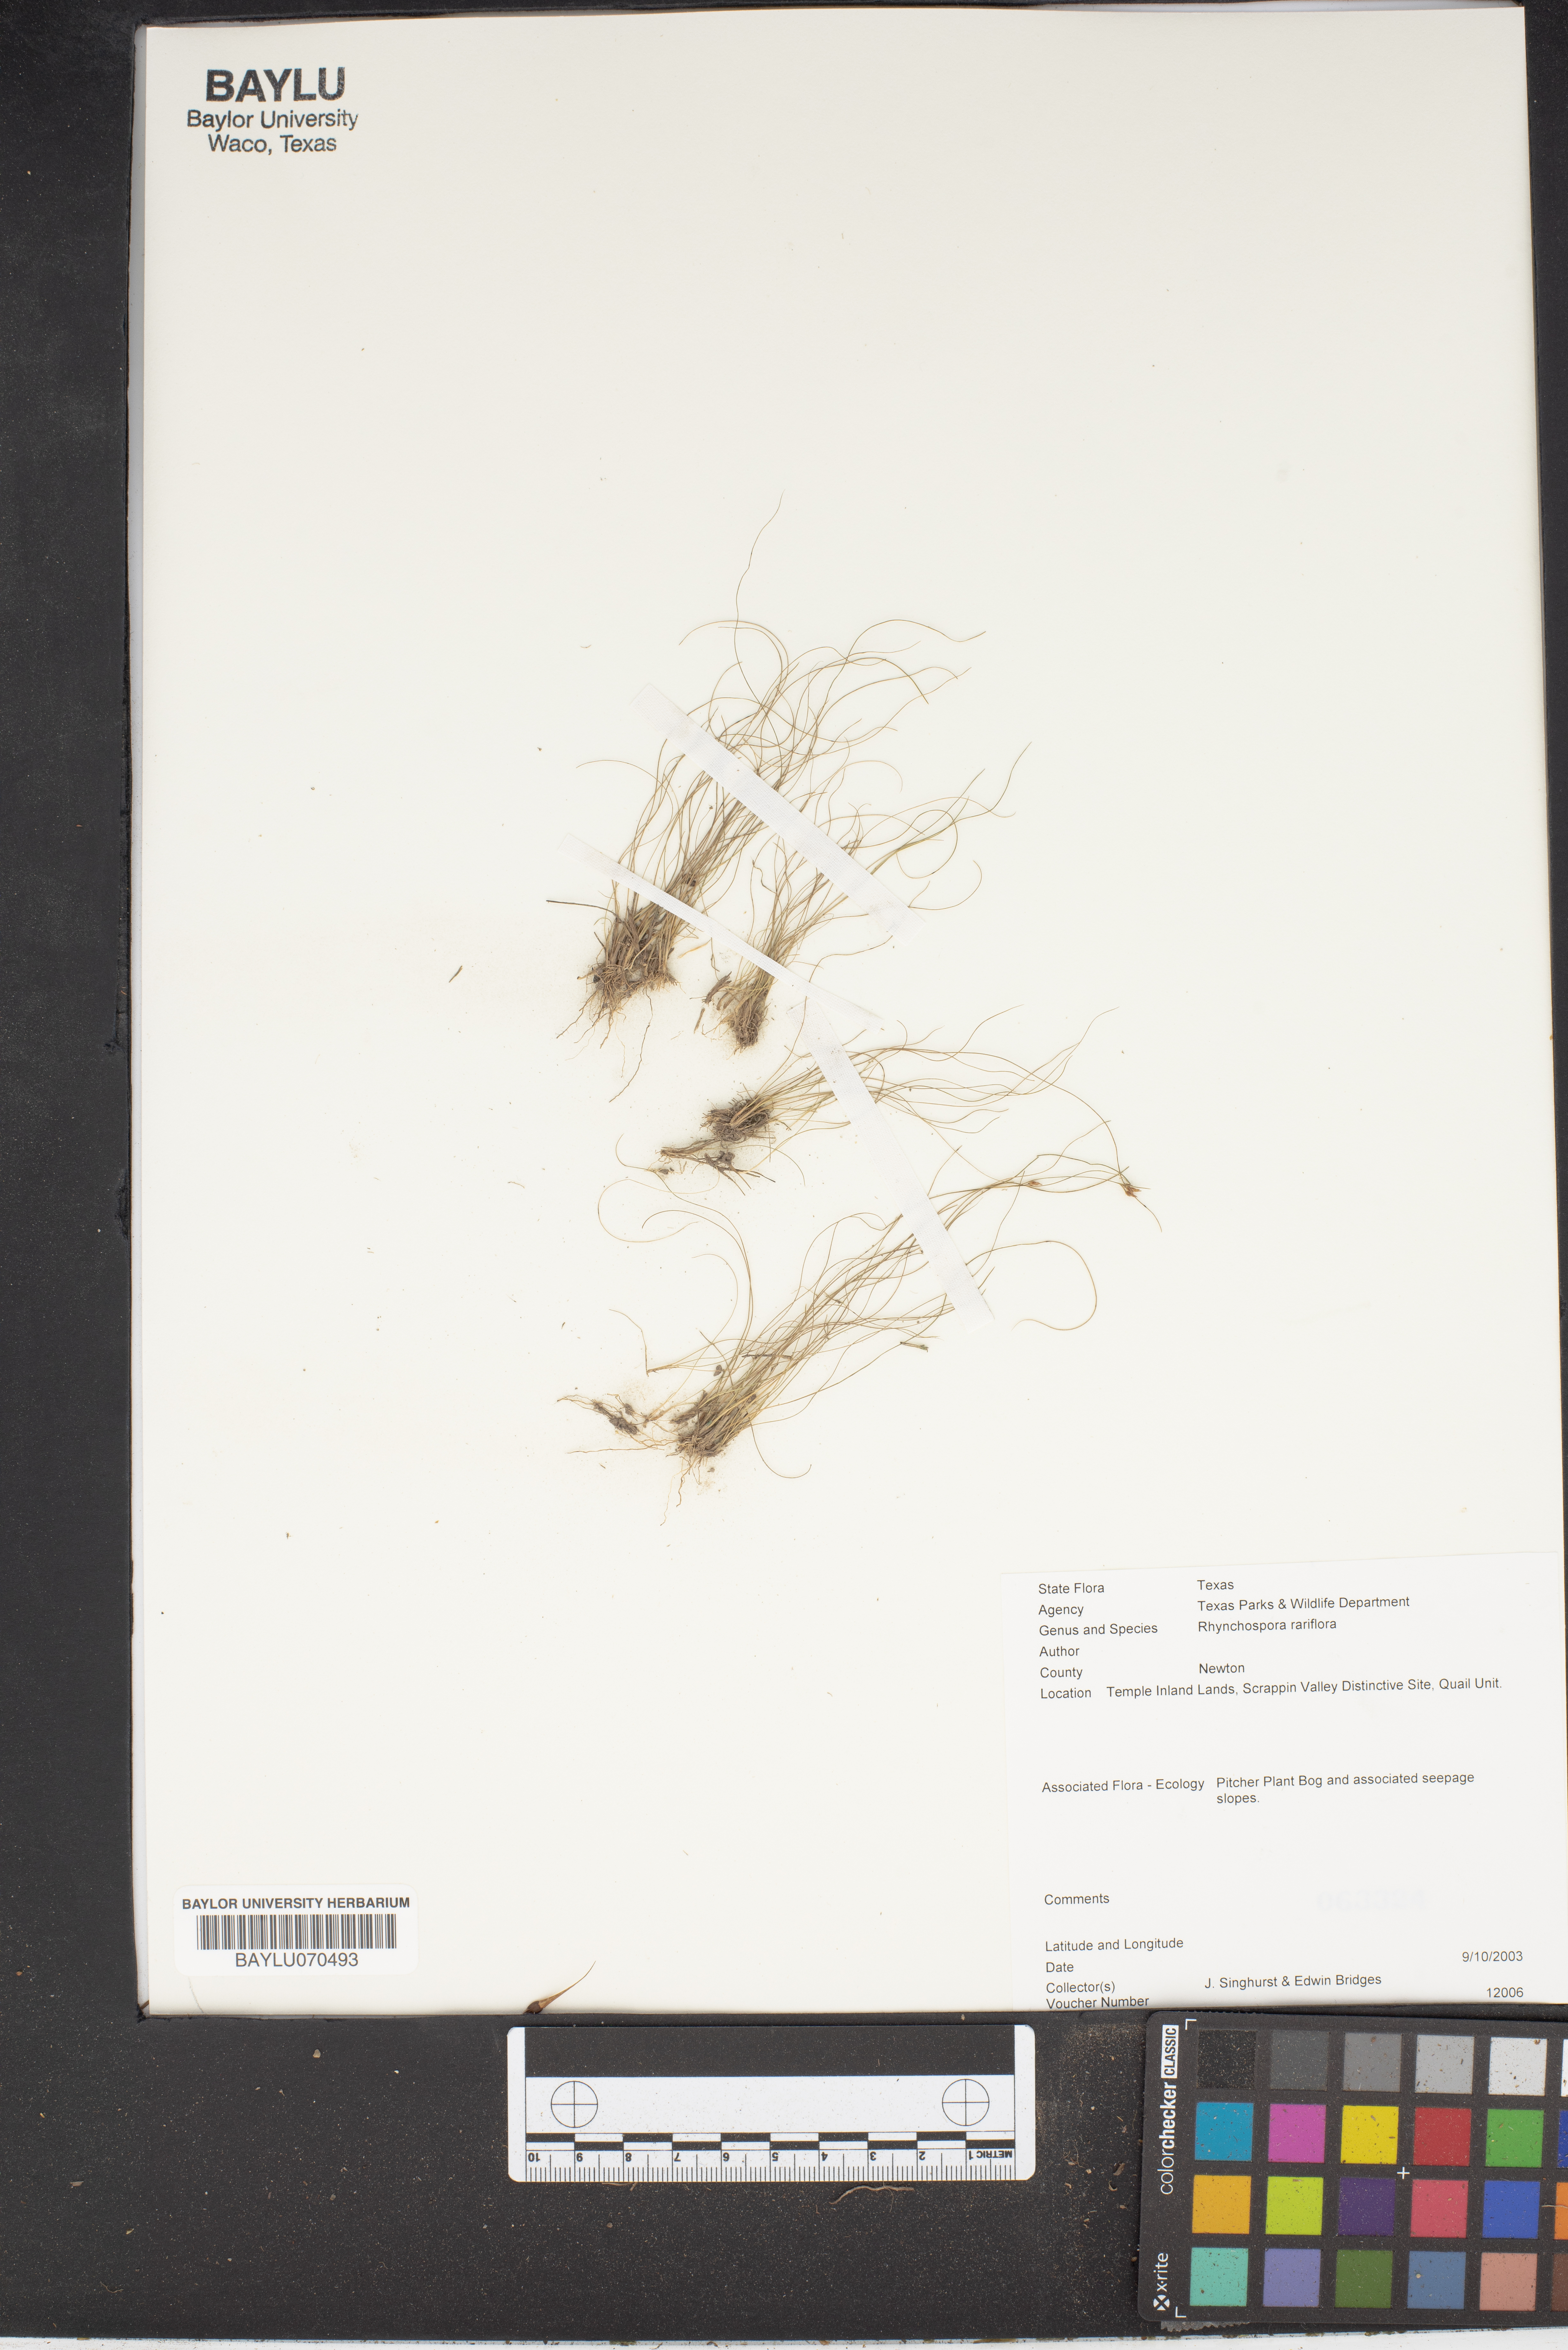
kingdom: Plantae
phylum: Tracheophyta
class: Liliopsida
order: Poales
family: Cyperaceae
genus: Rhynchospora
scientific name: Rhynchospora rariflora
